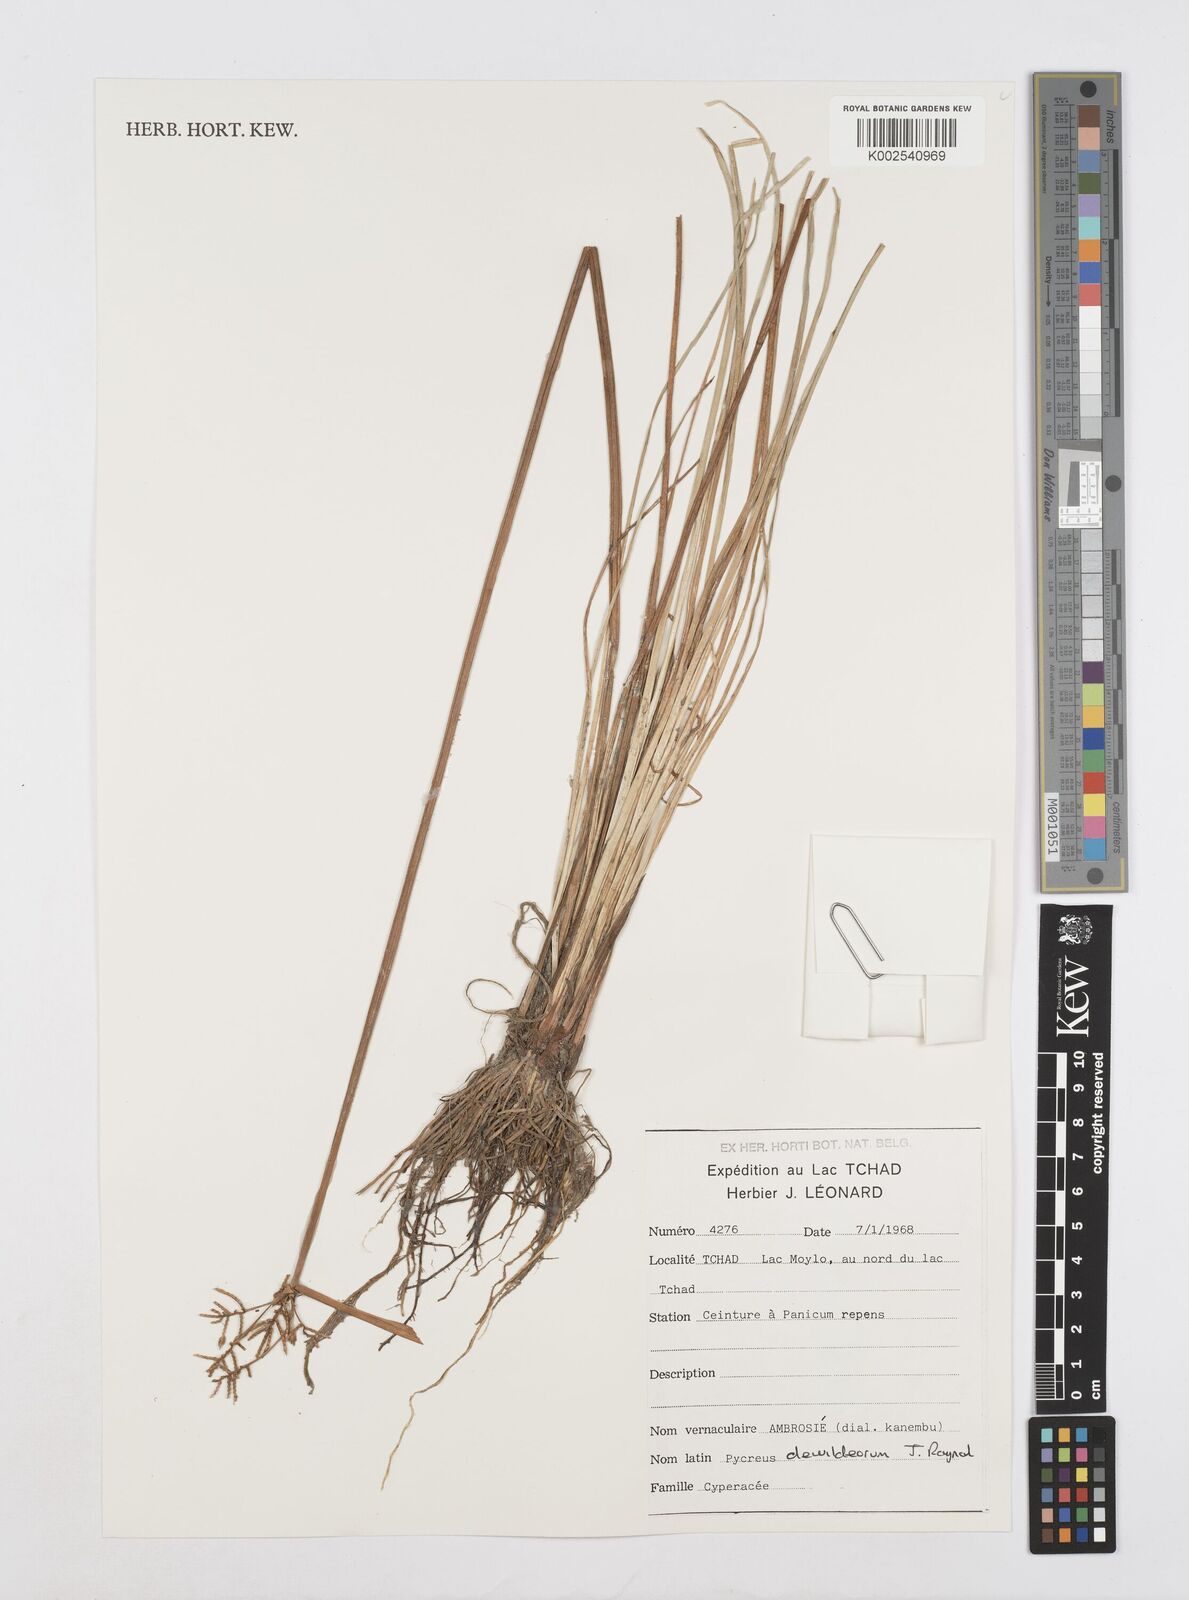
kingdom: Plantae
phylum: Tracheophyta
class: Liliopsida
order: Poales
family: Cyperaceae
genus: Cyperus
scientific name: Cyperus xantholepis
